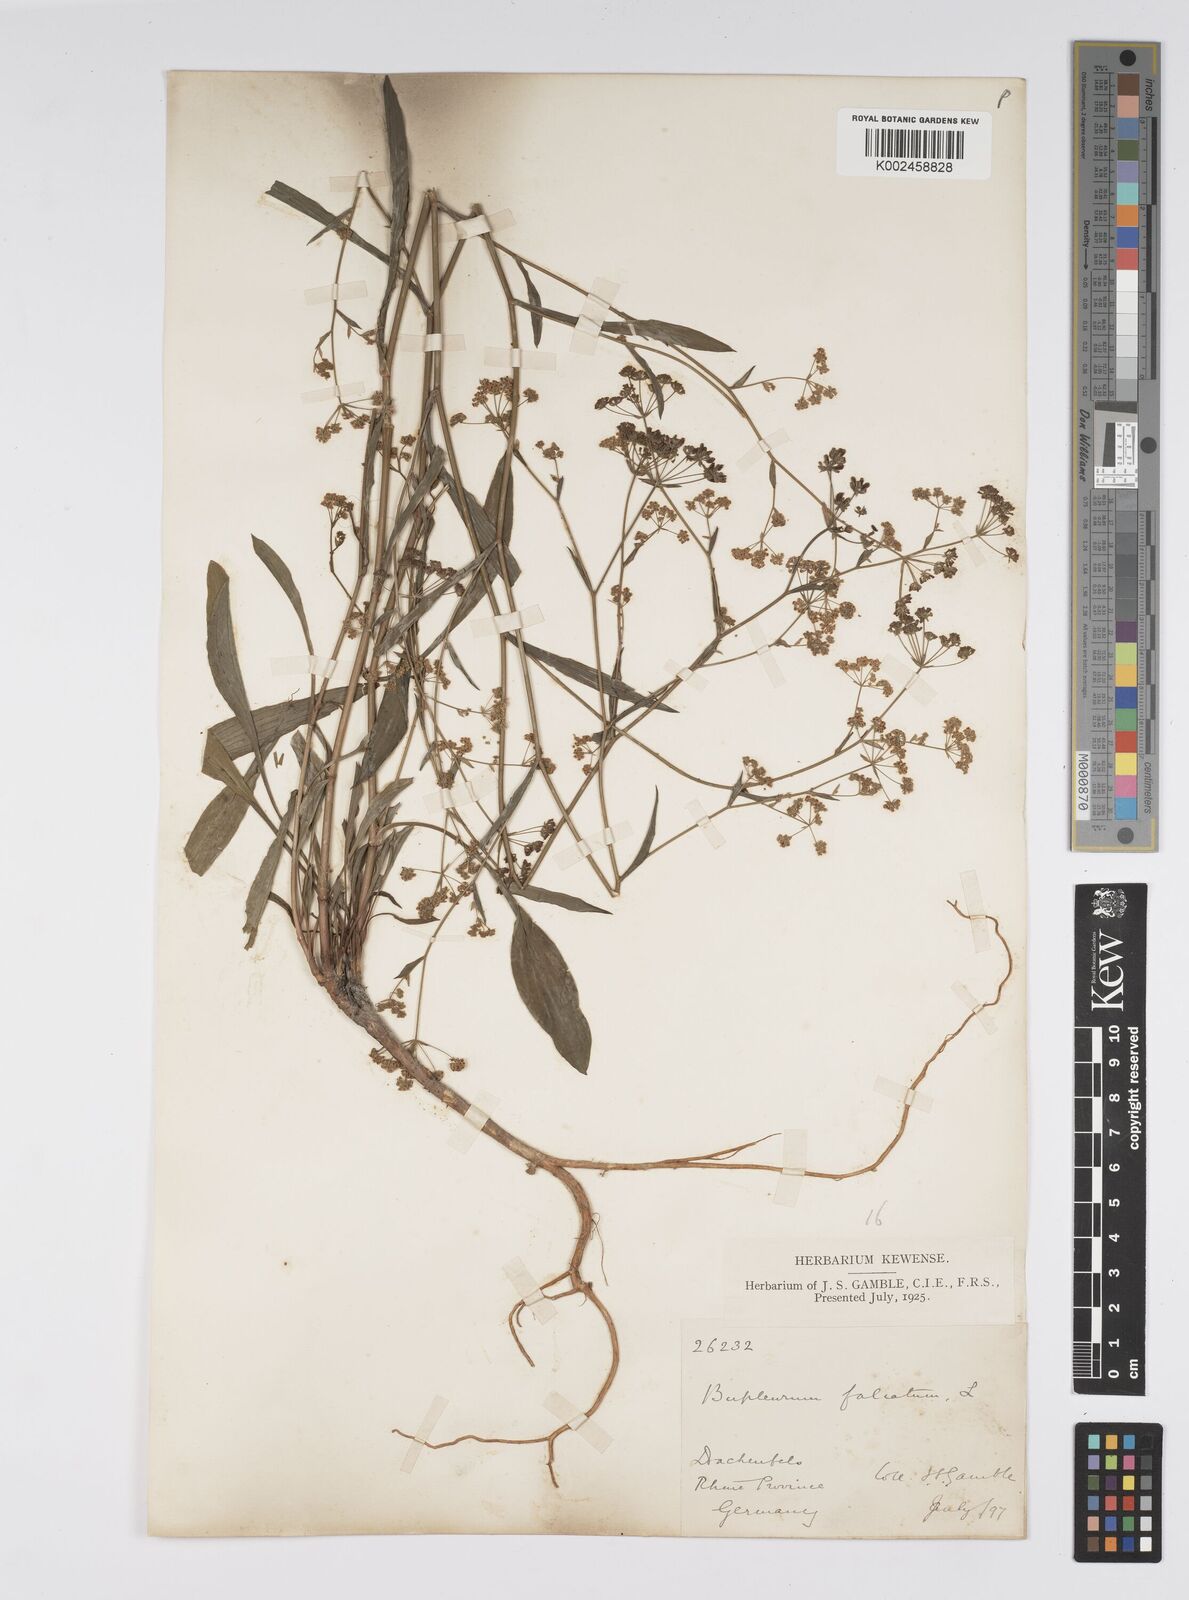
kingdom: Plantae
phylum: Tracheophyta
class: Magnoliopsida
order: Apiales
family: Apiaceae
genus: Bupleurum
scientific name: Bupleurum falcatum
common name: Sickle-leaved hare's-ear
